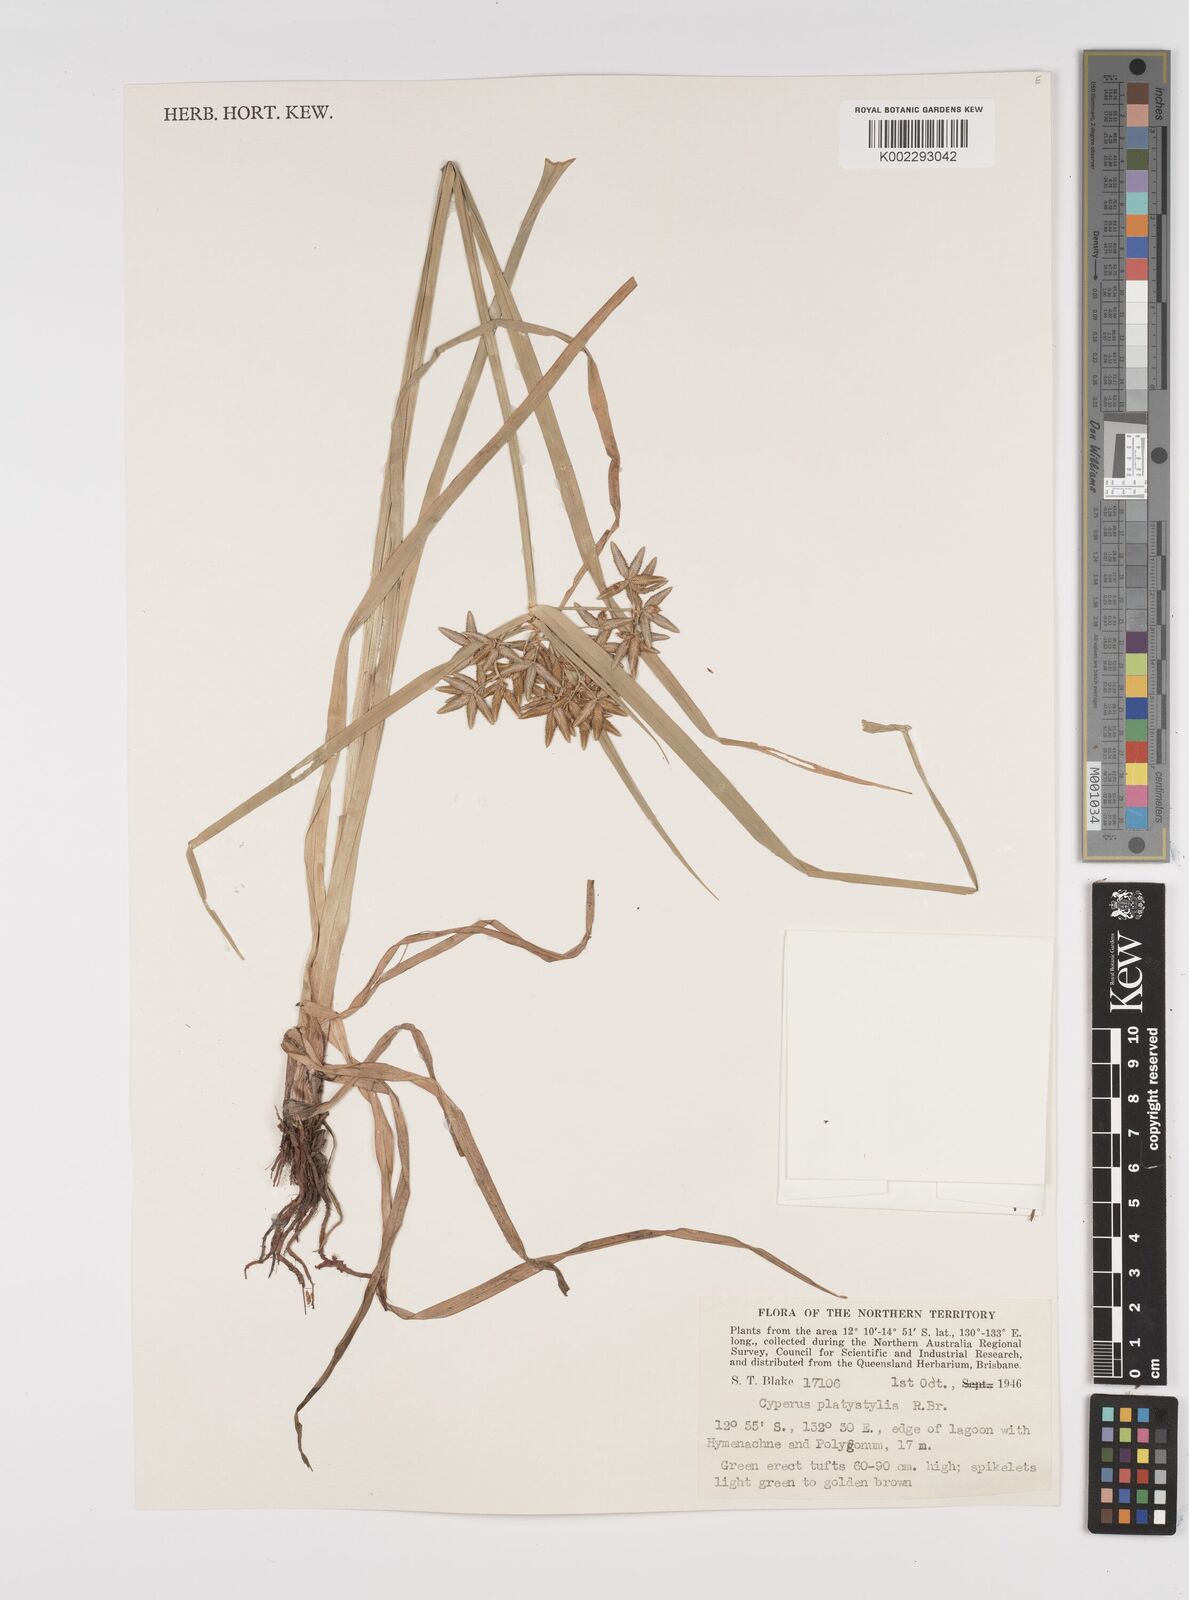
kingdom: Plantae
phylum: Tracheophyta
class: Liliopsida
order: Poales
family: Cyperaceae
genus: Cyperus
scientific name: Cyperus platystylis
